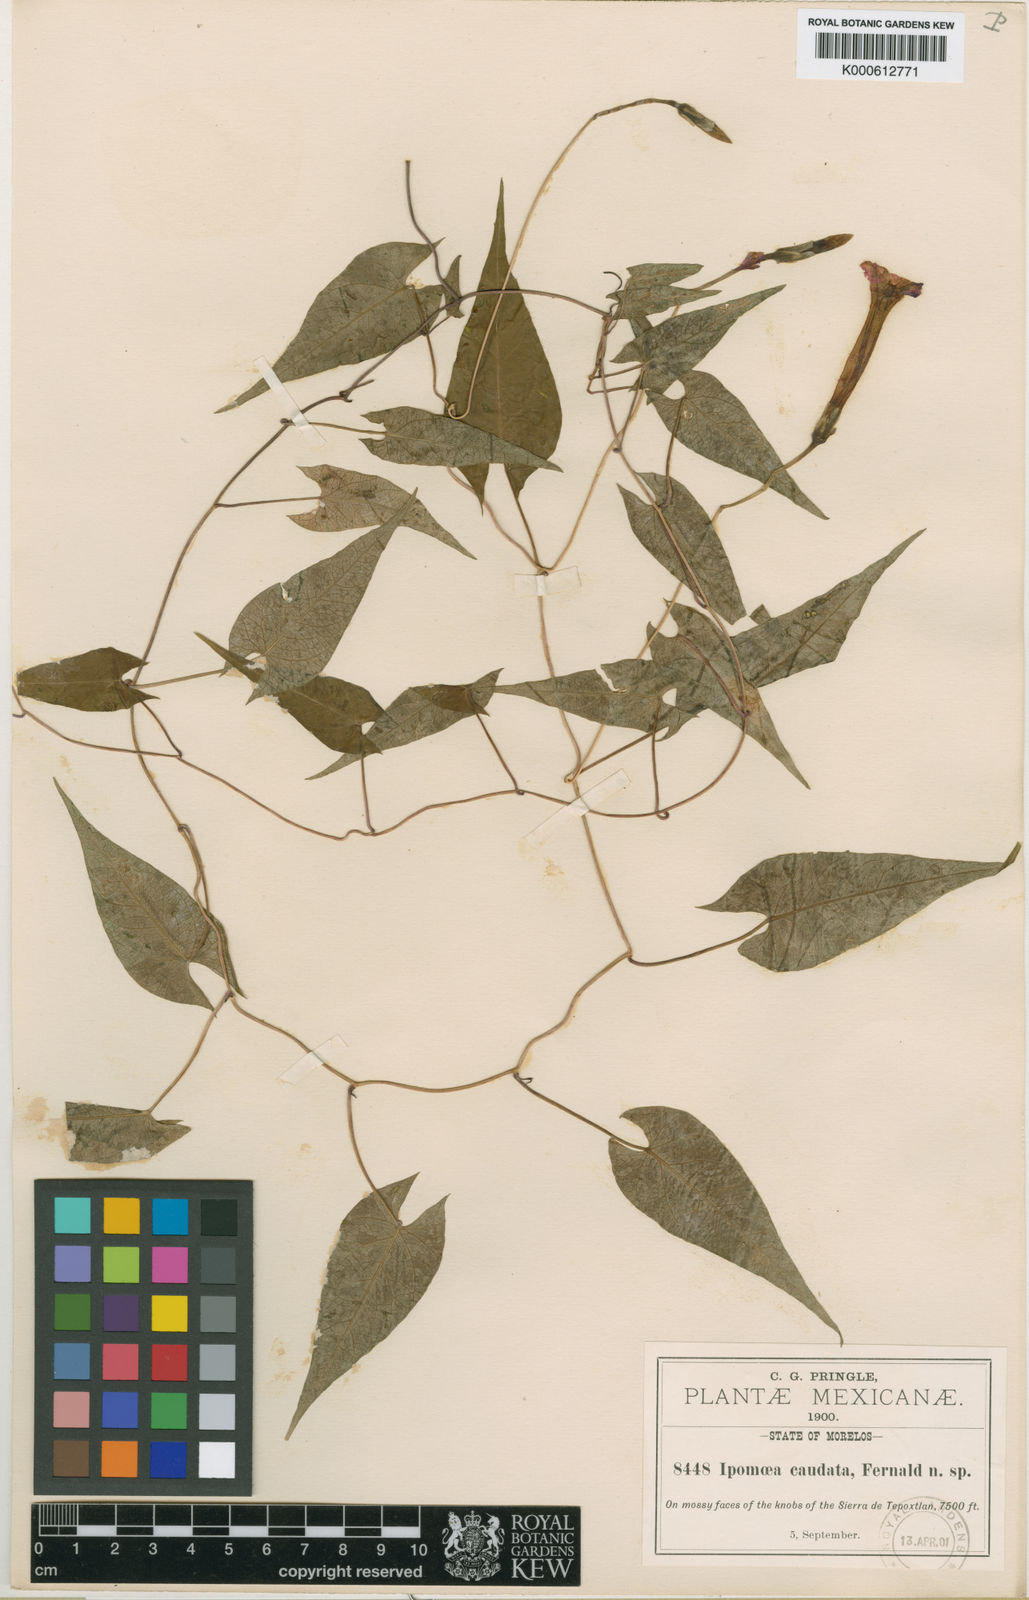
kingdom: Plantae
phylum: Tracheophyta
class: Magnoliopsida
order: Solanales
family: Convolvulaceae
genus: Ipomoea
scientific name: Ipomoea caudata
